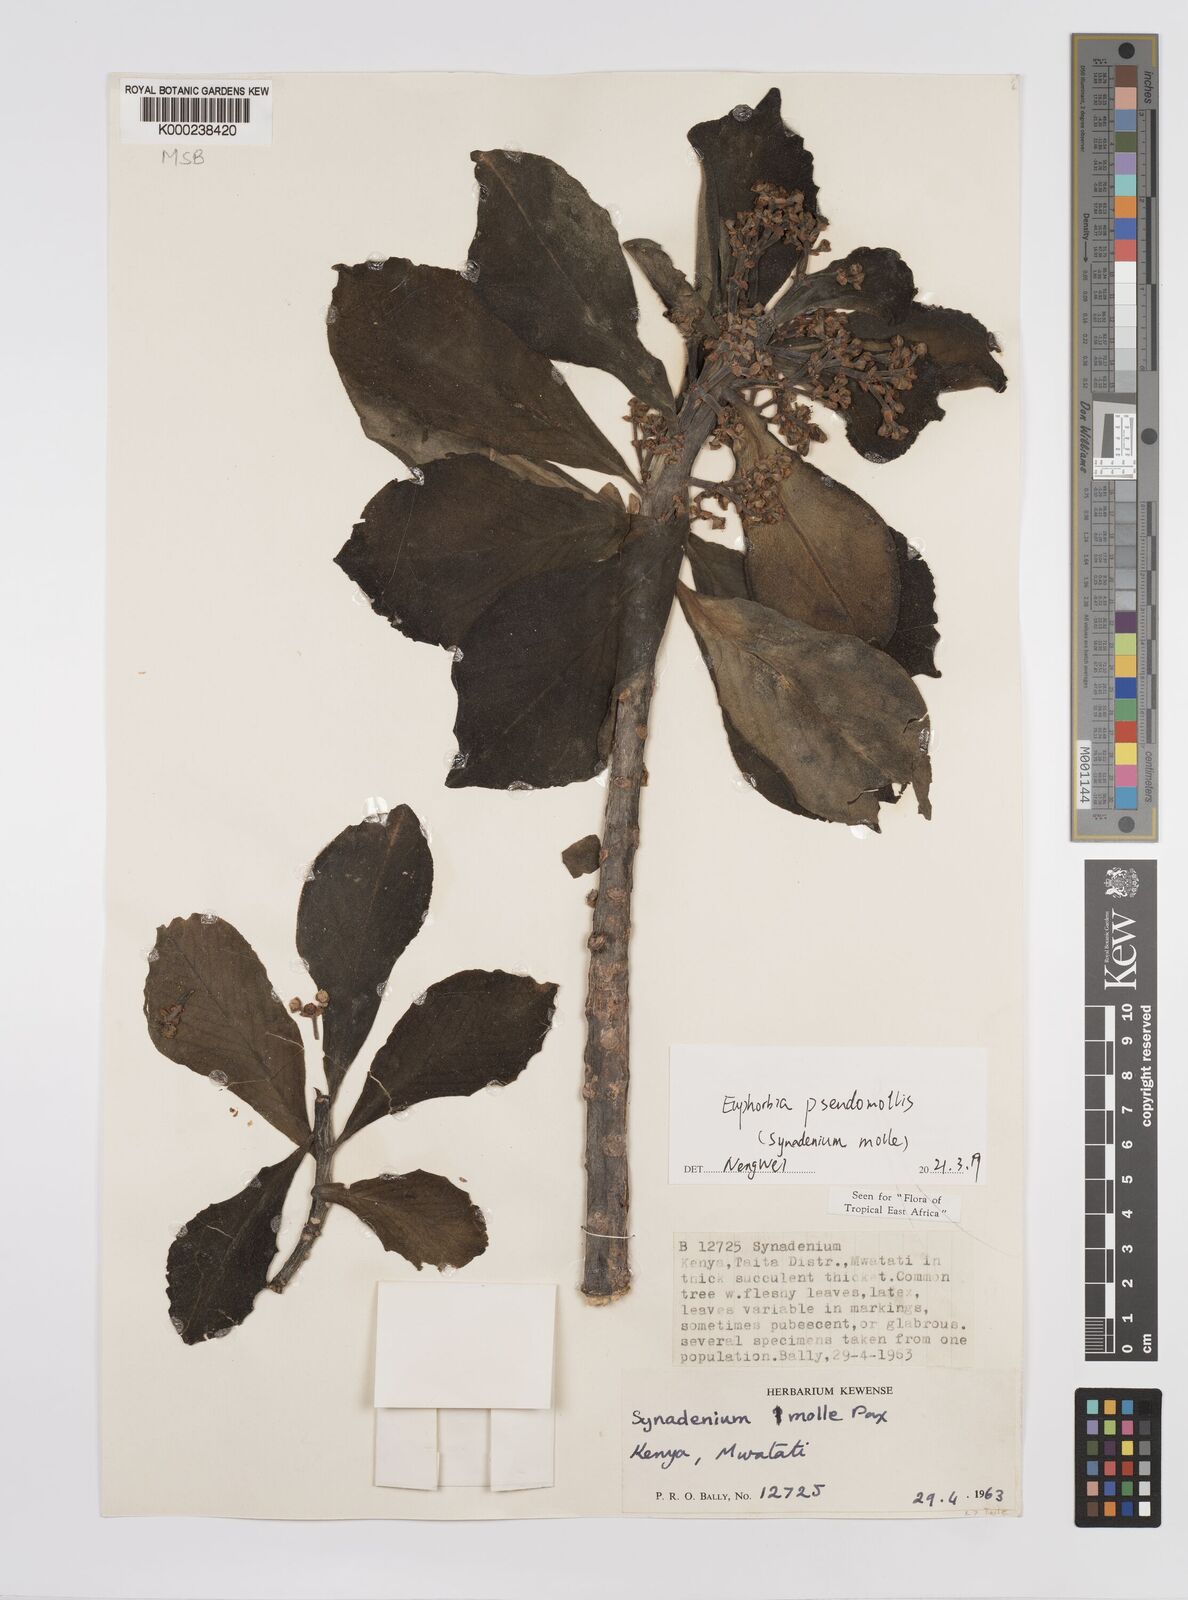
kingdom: Plantae
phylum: Tracheophyta
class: Magnoliopsida
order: Malpighiales
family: Euphorbiaceae
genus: Euphorbia
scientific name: Euphorbia pseudomollis
